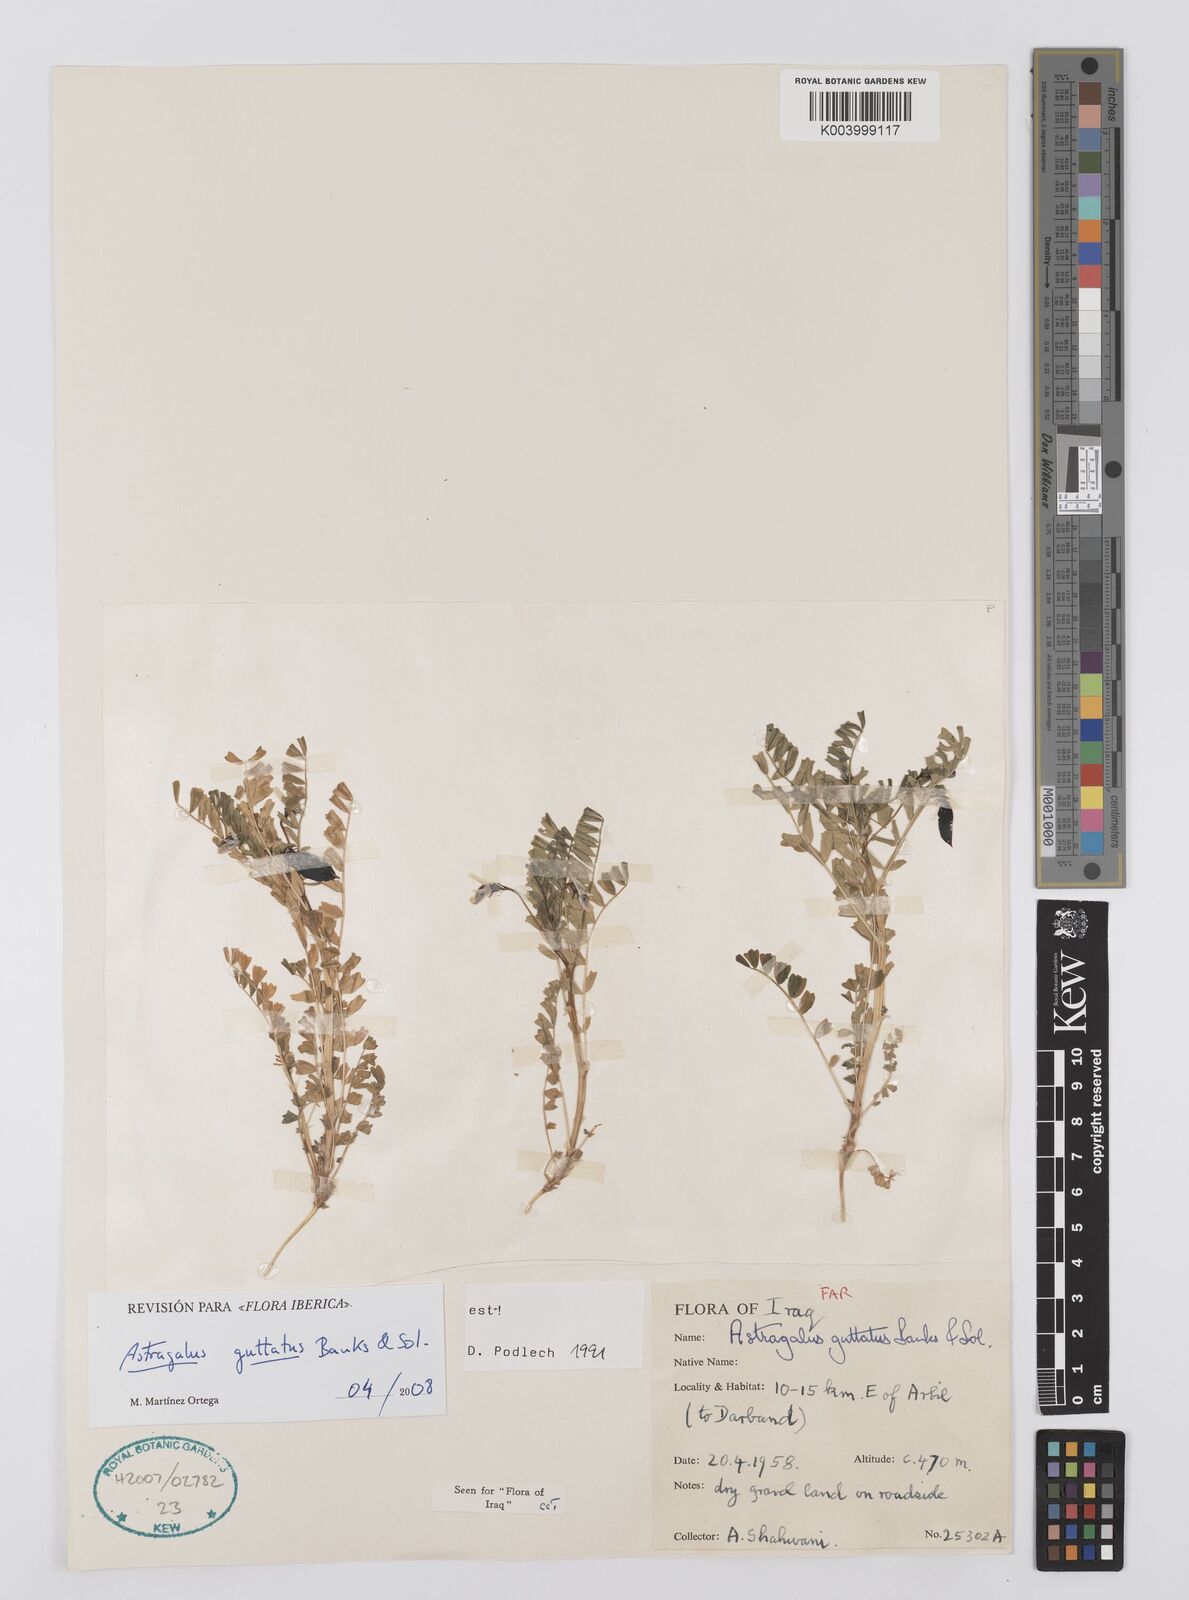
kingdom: Plantae
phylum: Tracheophyta
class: Magnoliopsida
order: Fabales
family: Fabaceae
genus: Astragalus
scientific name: Astragalus guttatus
